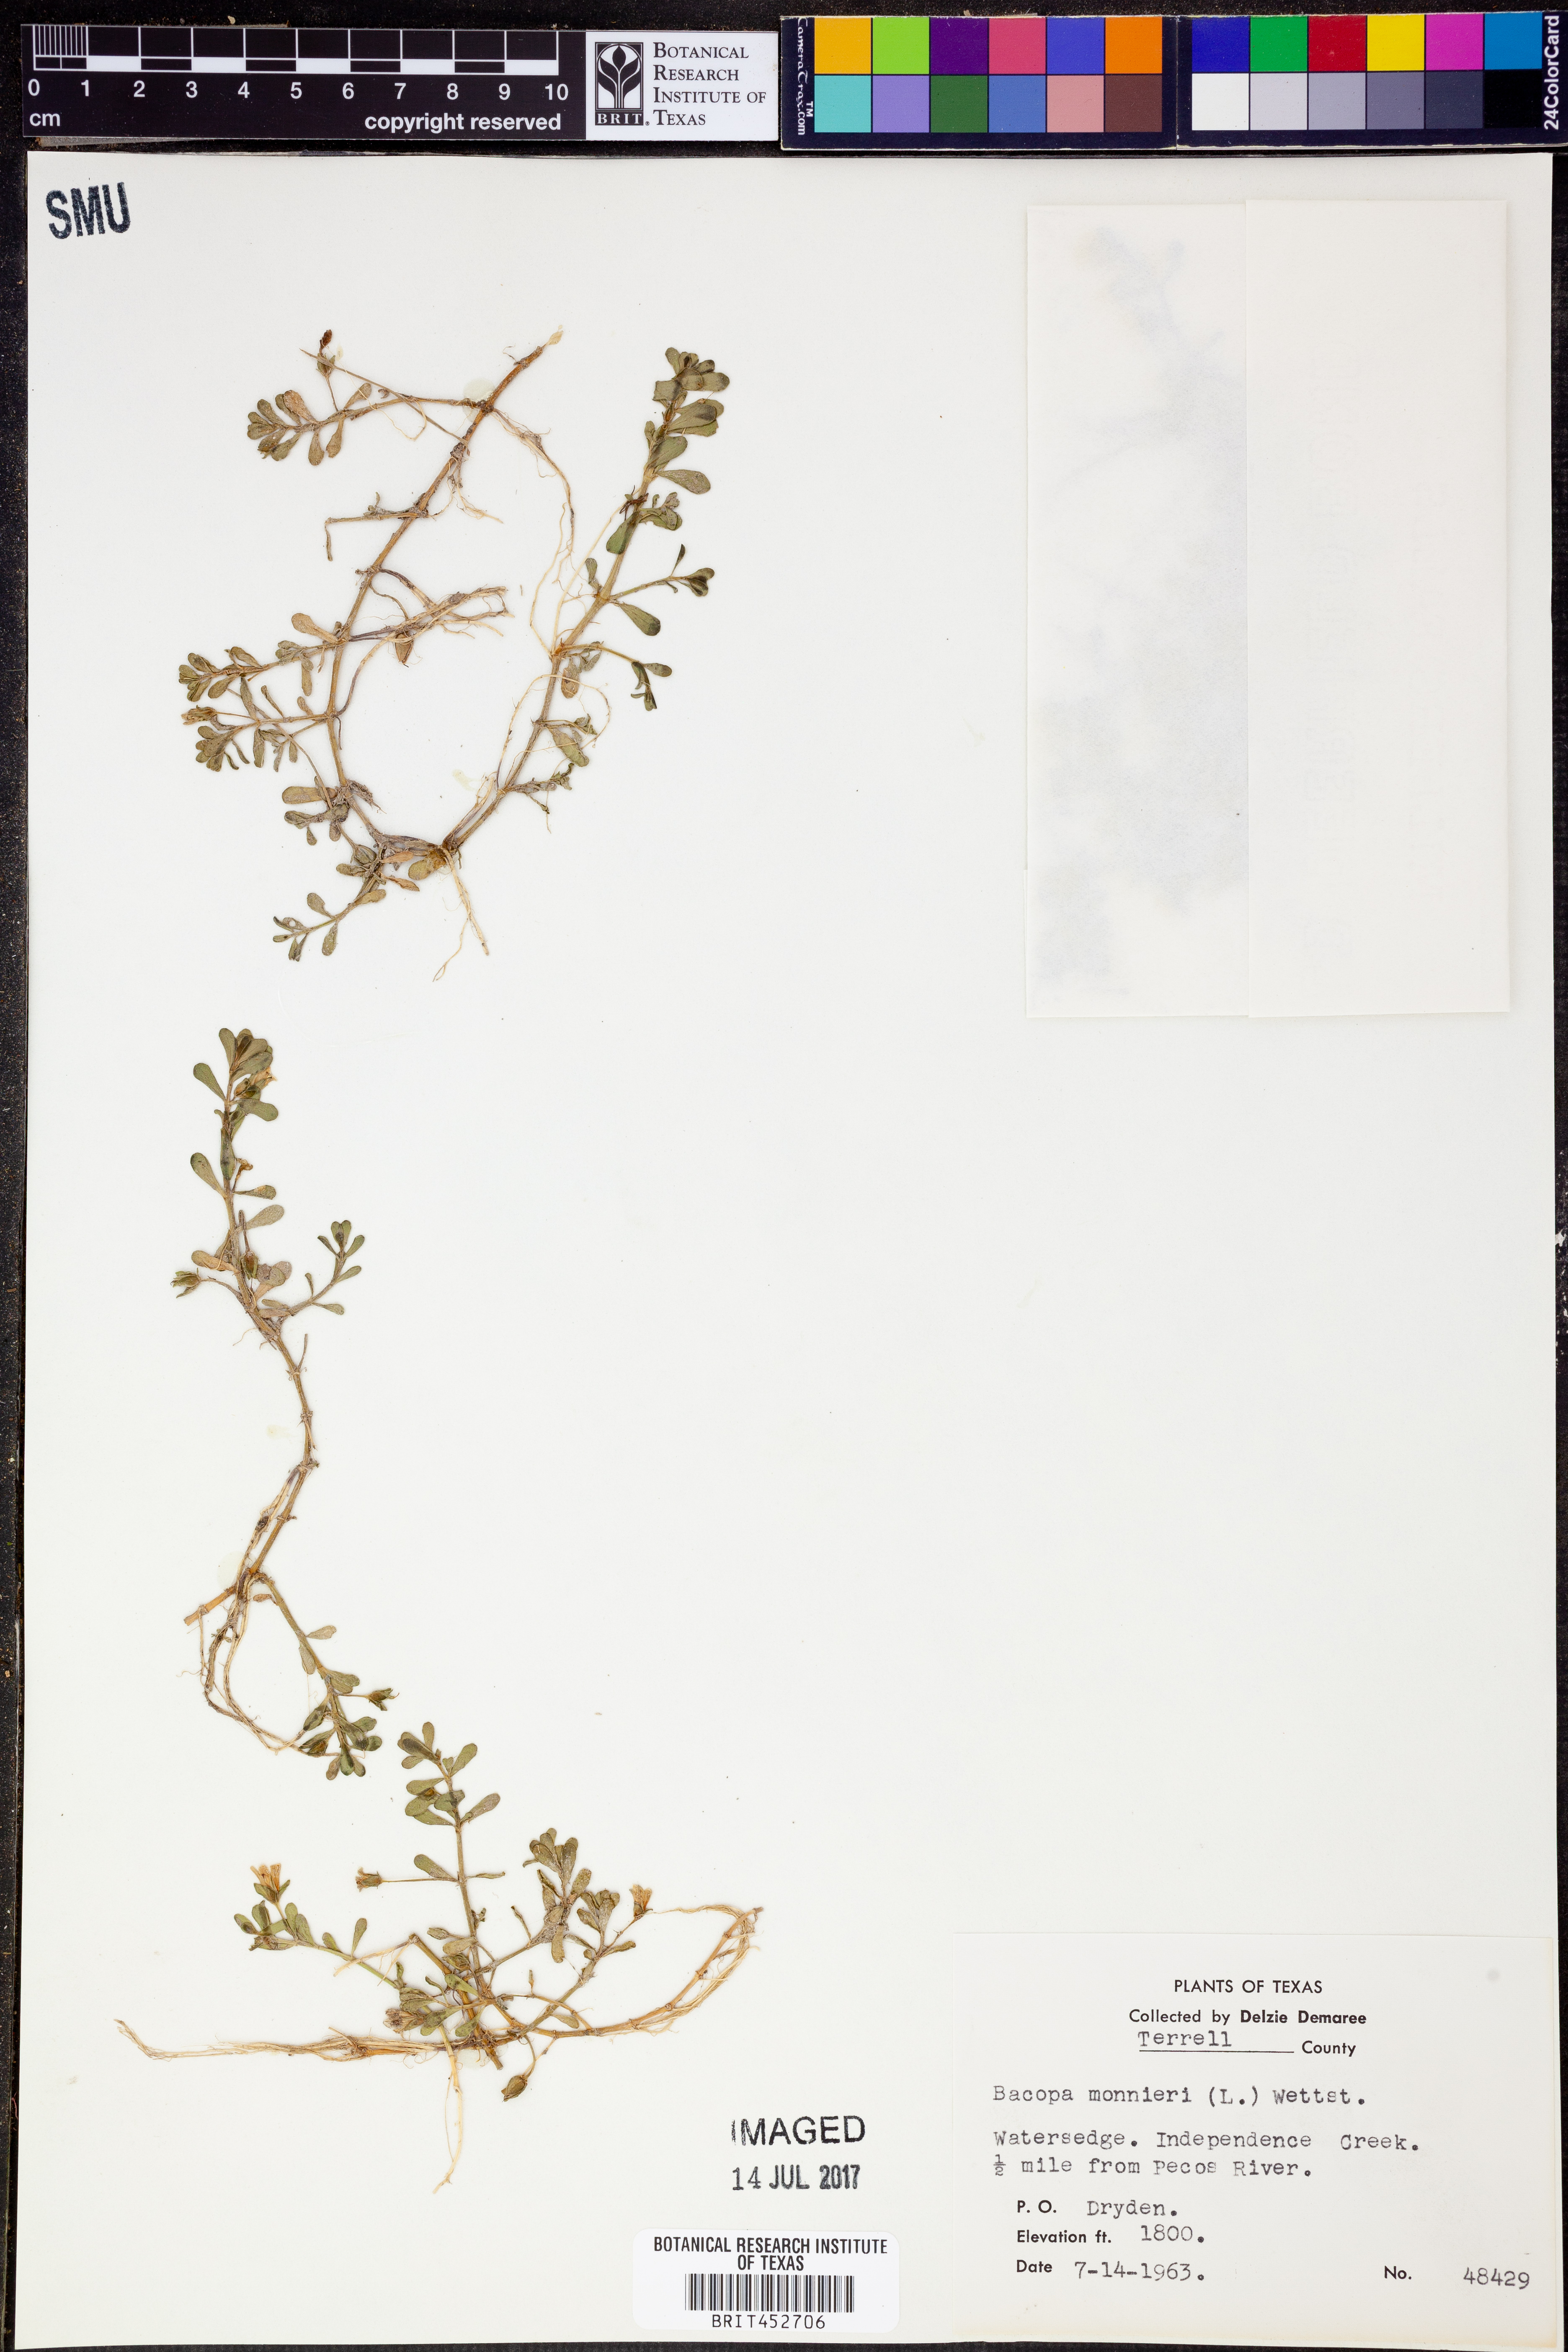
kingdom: Plantae
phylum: Tracheophyta
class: Magnoliopsida
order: Lamiales
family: Plantaginaceae
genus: Bacopa
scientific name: Bacopa monnieri
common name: Indian-pennywort
